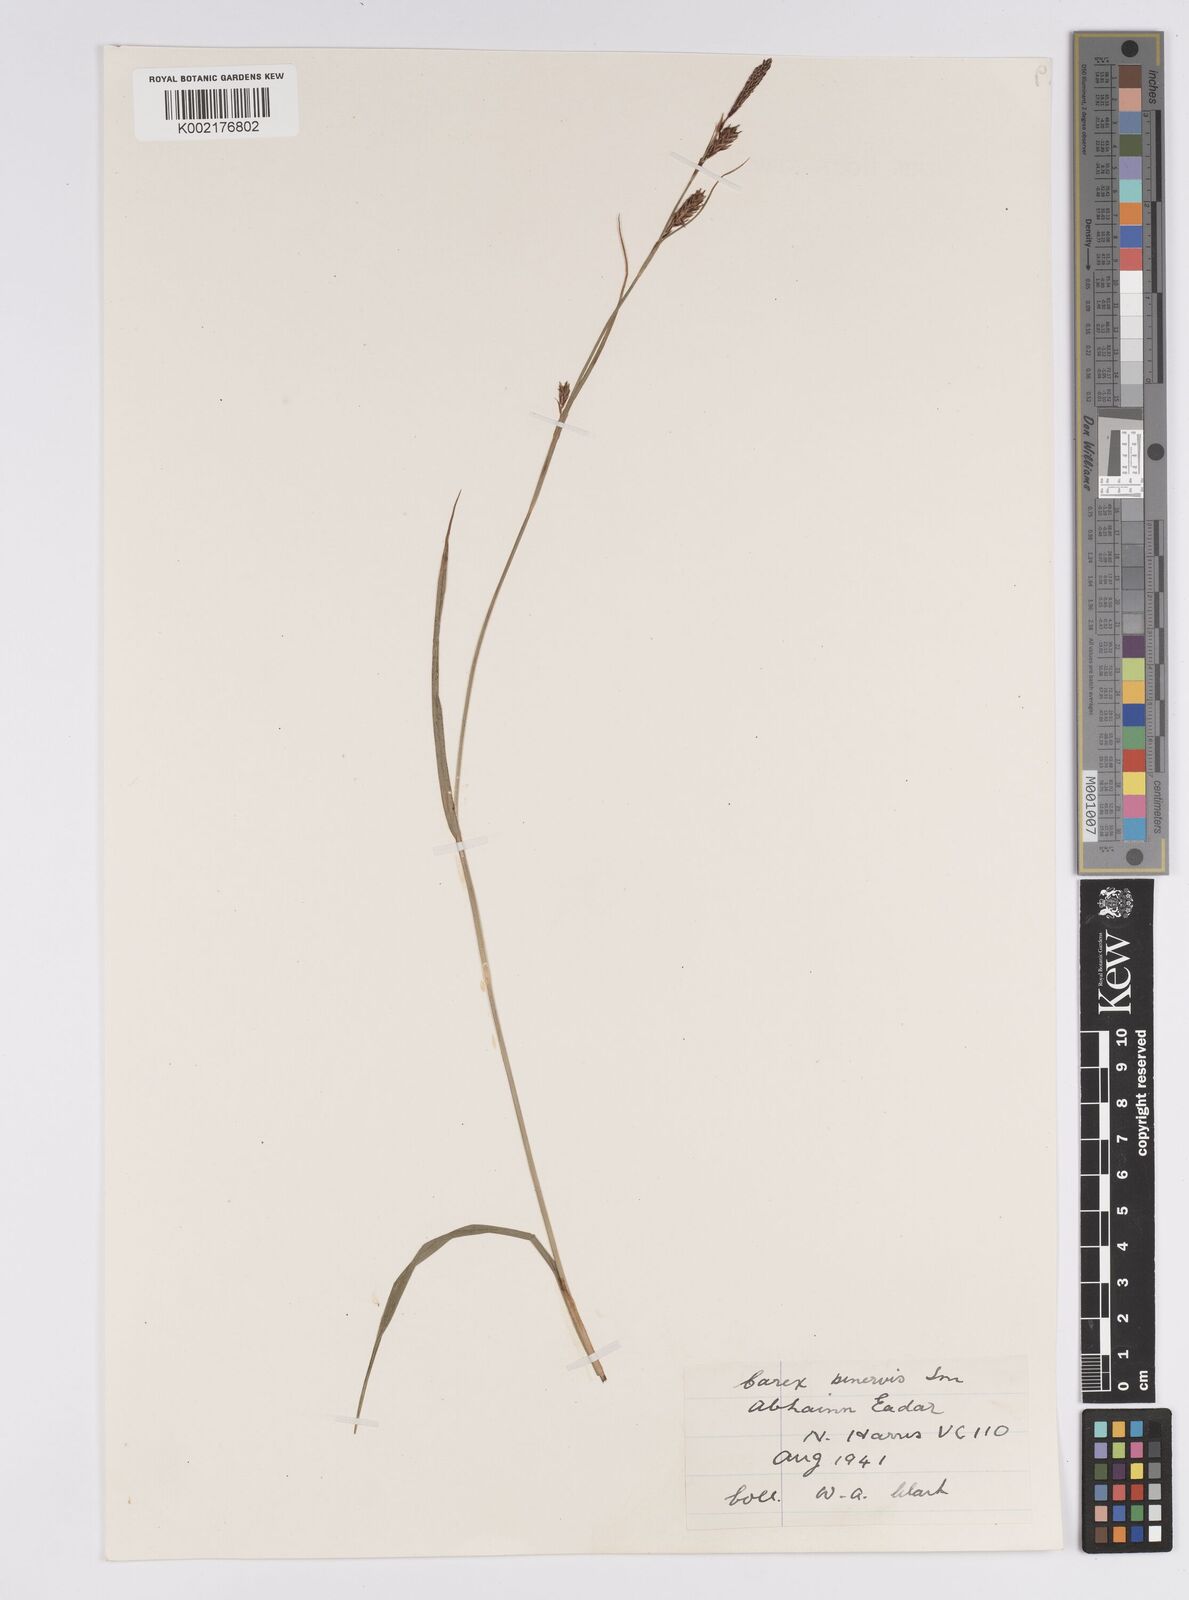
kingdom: Plantae
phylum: Tracheophyta
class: Liliopsida
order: Poales
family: Cyperaceae
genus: Carex
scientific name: Carex binervis
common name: Green-ribbed sedge
